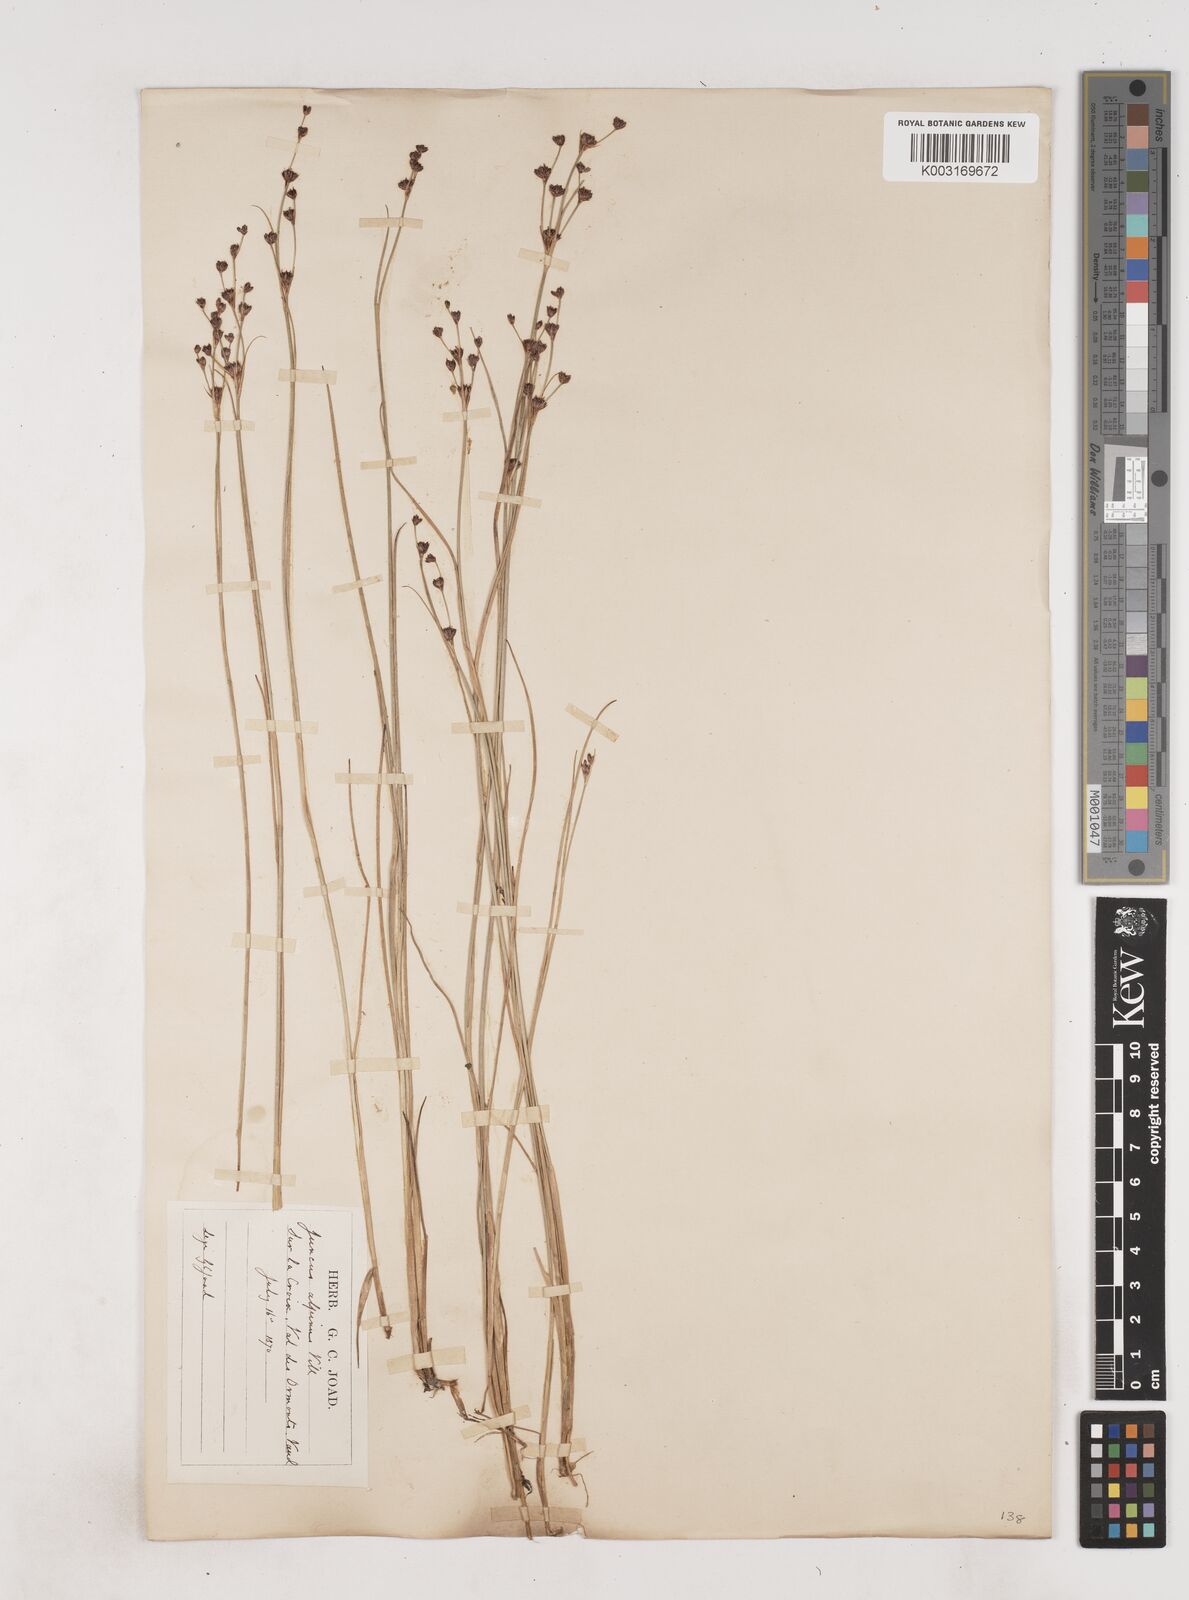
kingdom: Plantae
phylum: Tracheophyta
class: Liliopsida
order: Poales
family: Juncaceae
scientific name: Juncaceae
